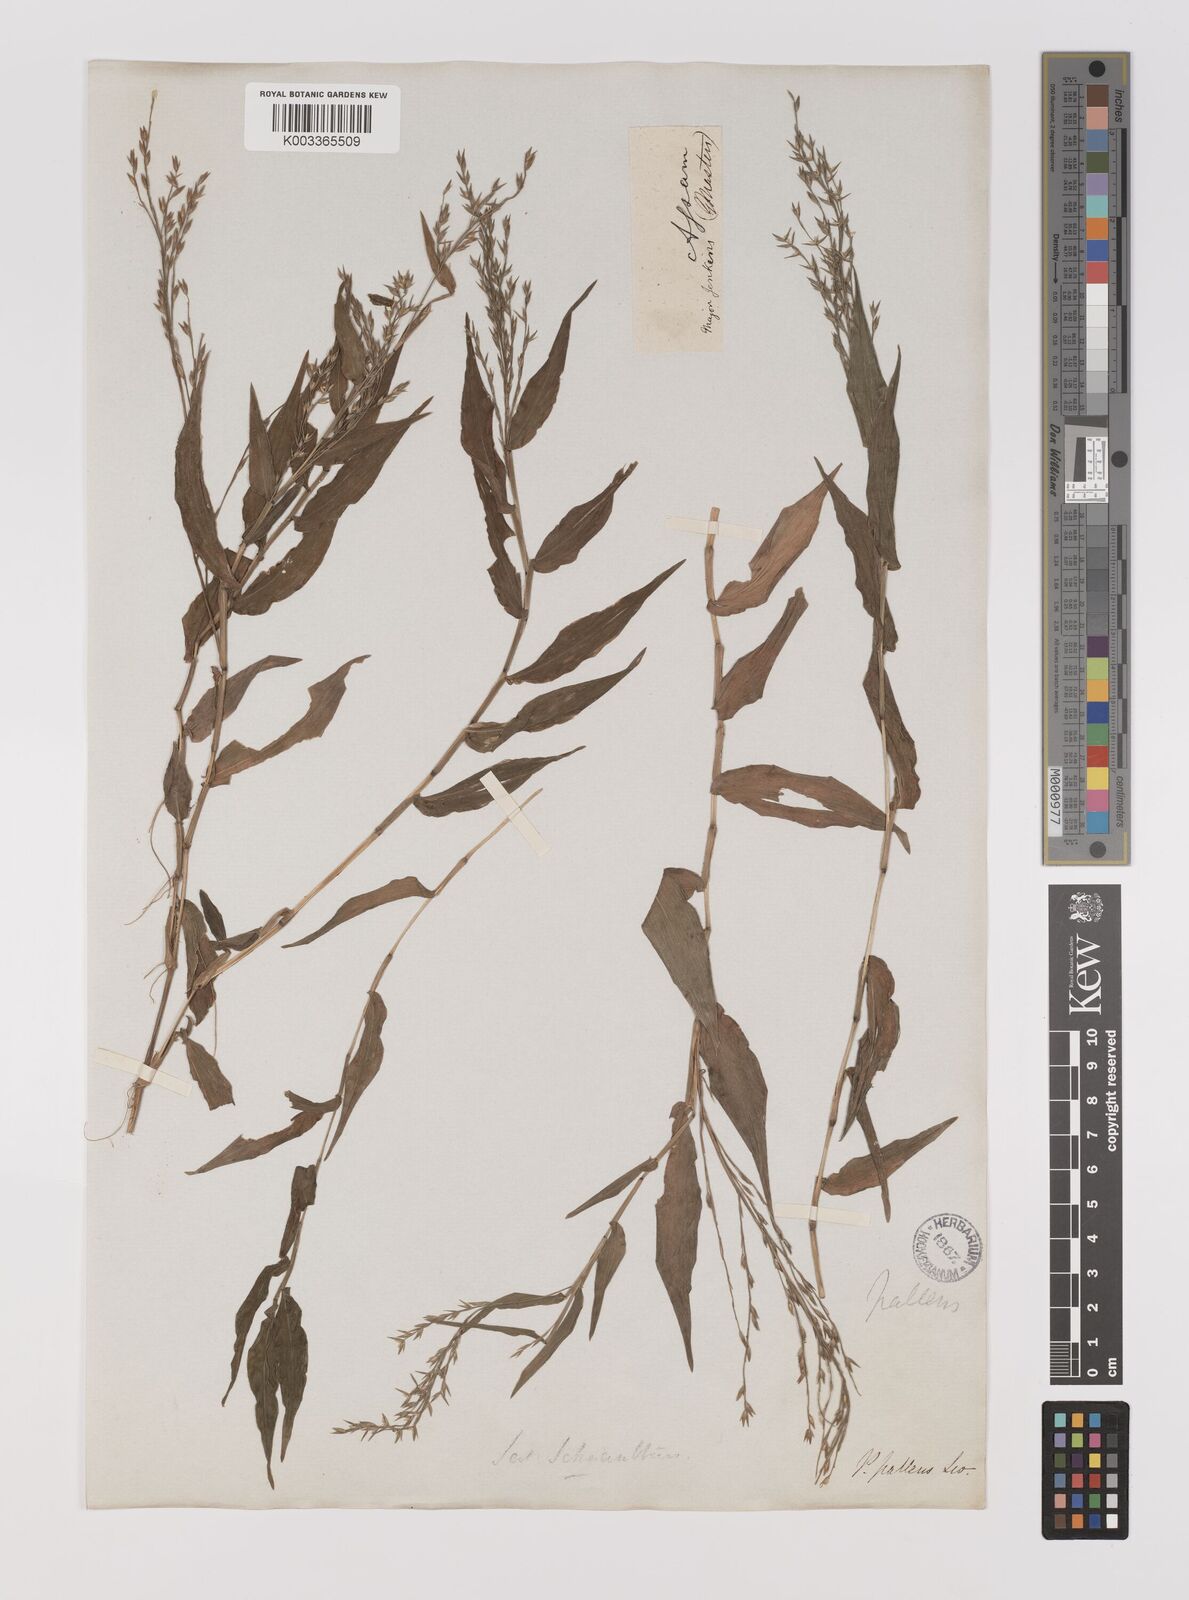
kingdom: Plantae
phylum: Tracheophyta
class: Liliopsida
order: Poales
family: Poaceae
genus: Ichnanthus
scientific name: Ichnanthus pallens
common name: Water grass
